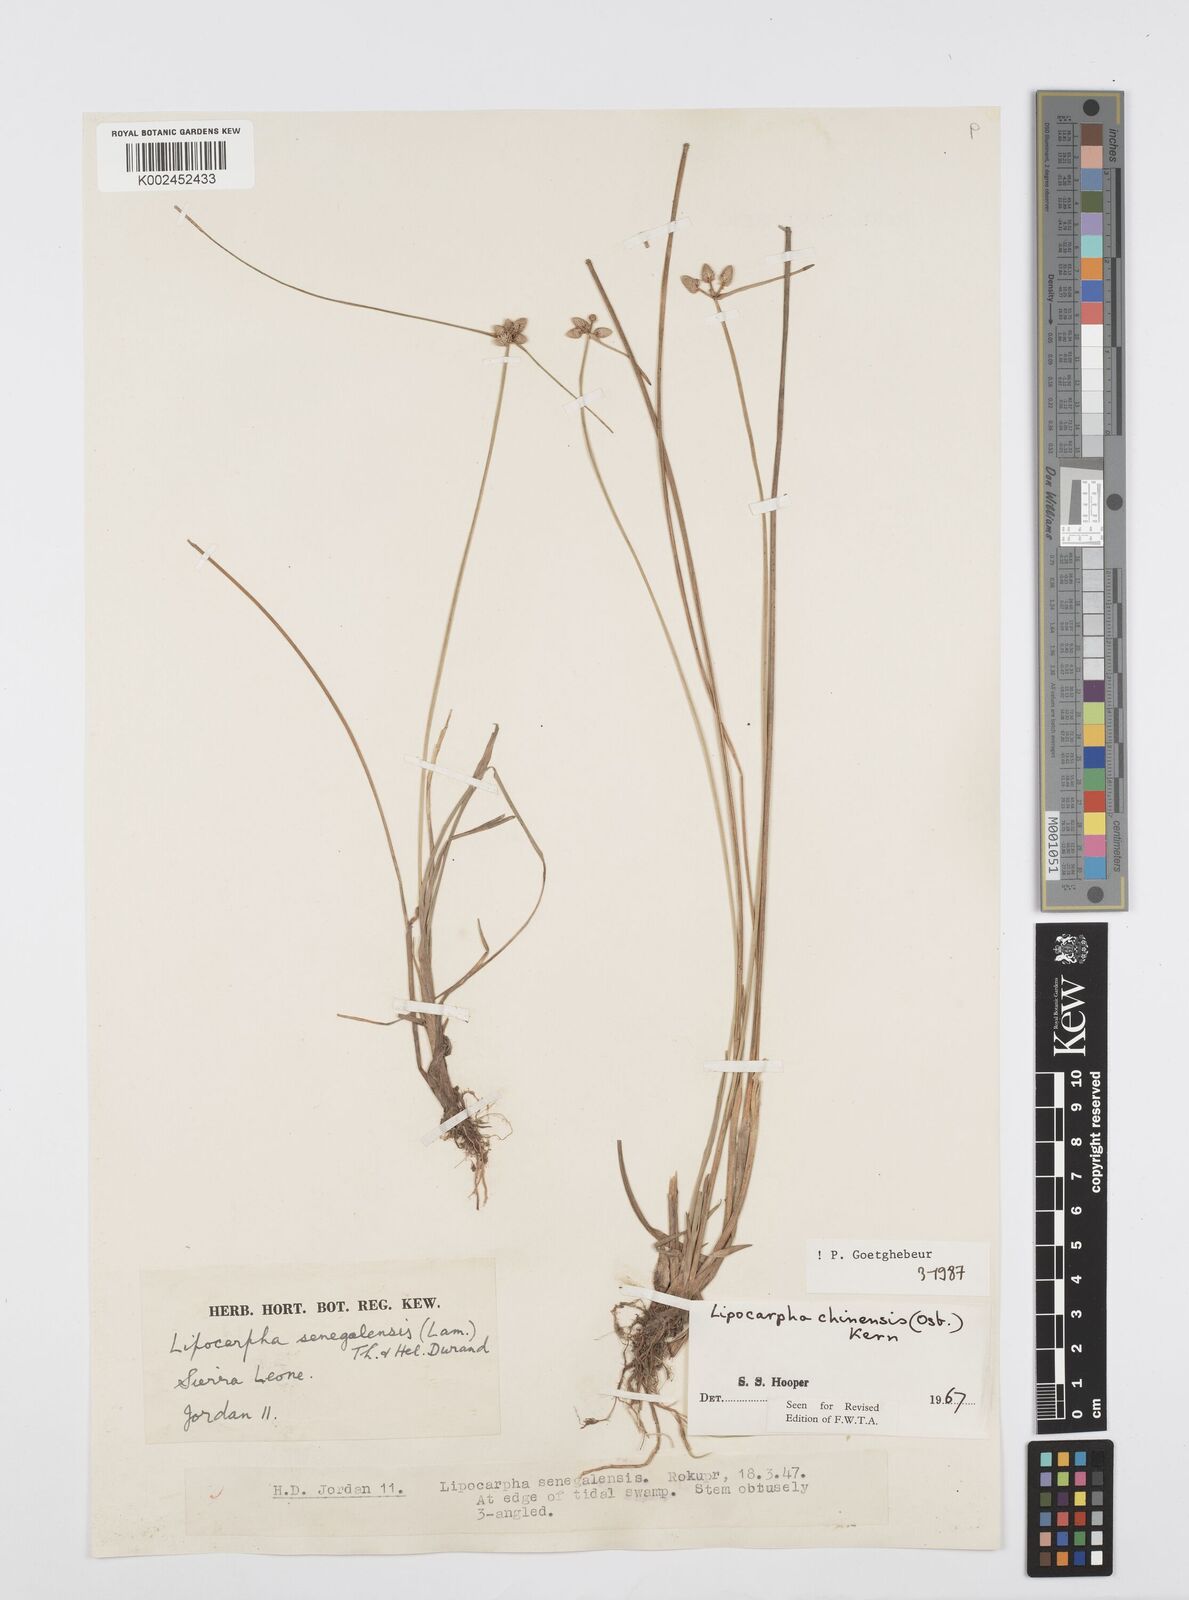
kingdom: Plantae
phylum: Tracheophyta
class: Liliopsida
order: Poales
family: Cyperaceae
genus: Cyperus
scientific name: Cyperus albescens
